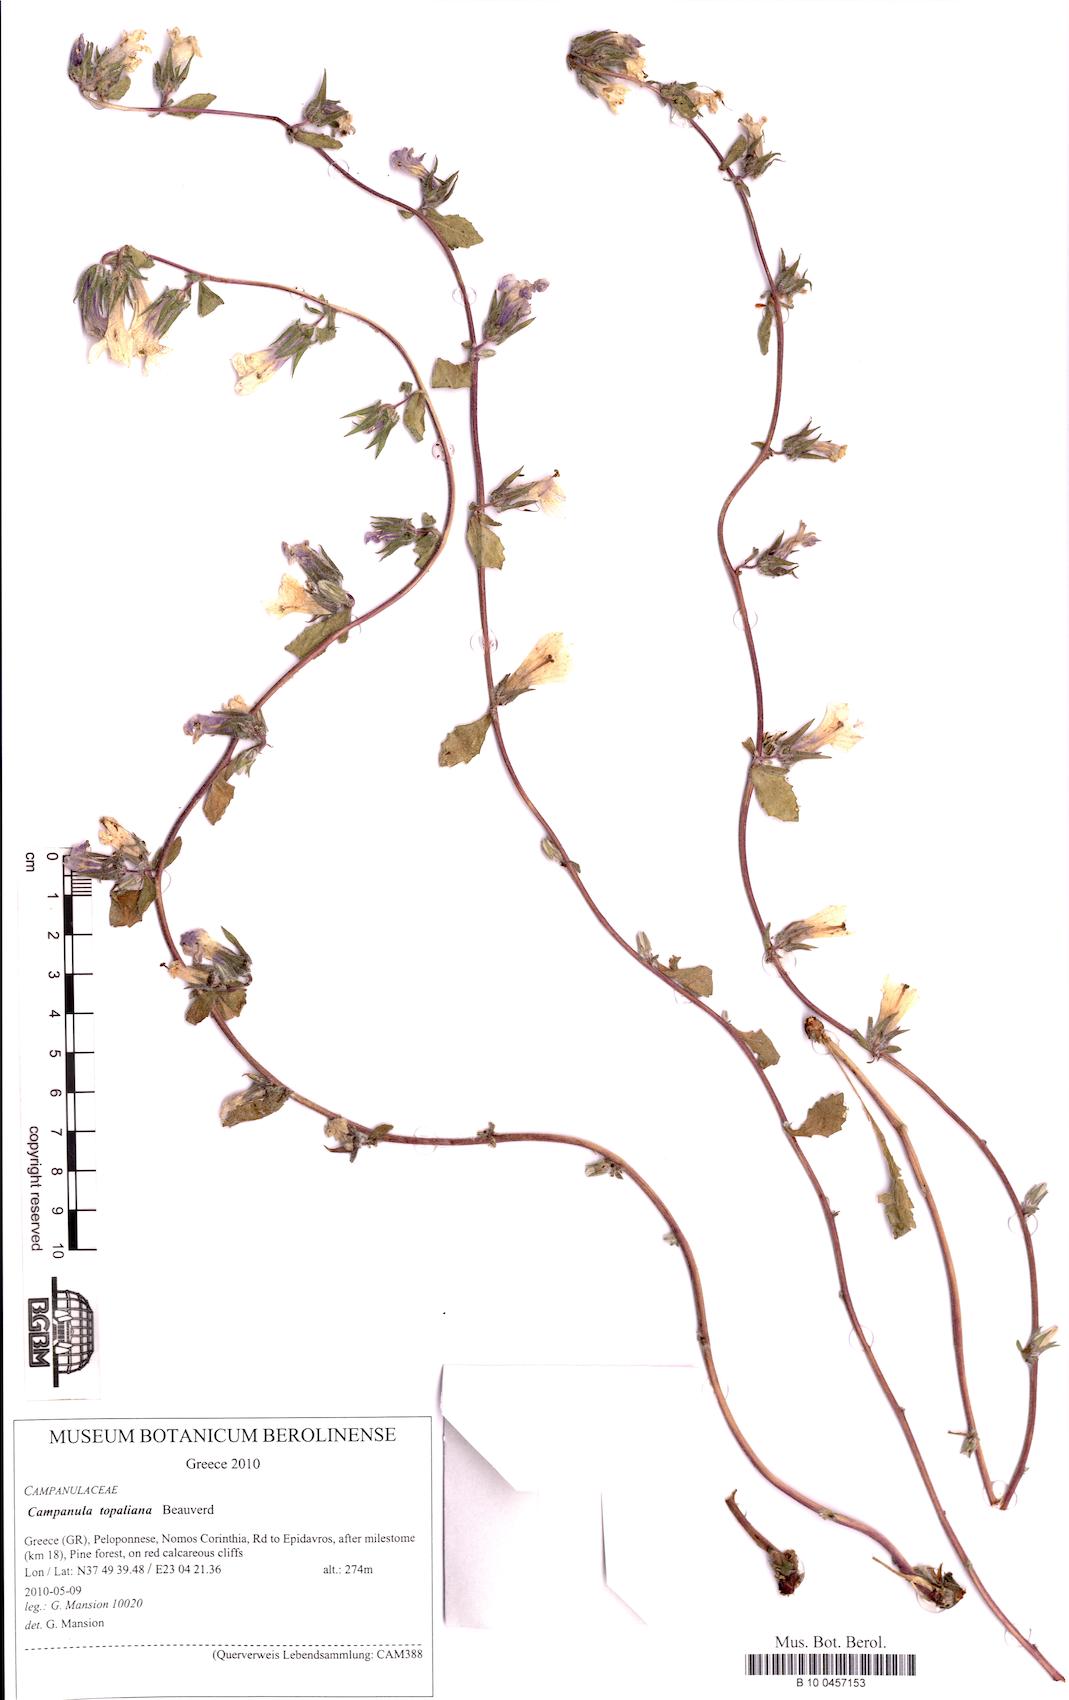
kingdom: Plantae
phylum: Tracheophyta
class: Magnoliopsida
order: Asterales
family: Campanulaceae
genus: Campanula
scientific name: Campanula topaliana
